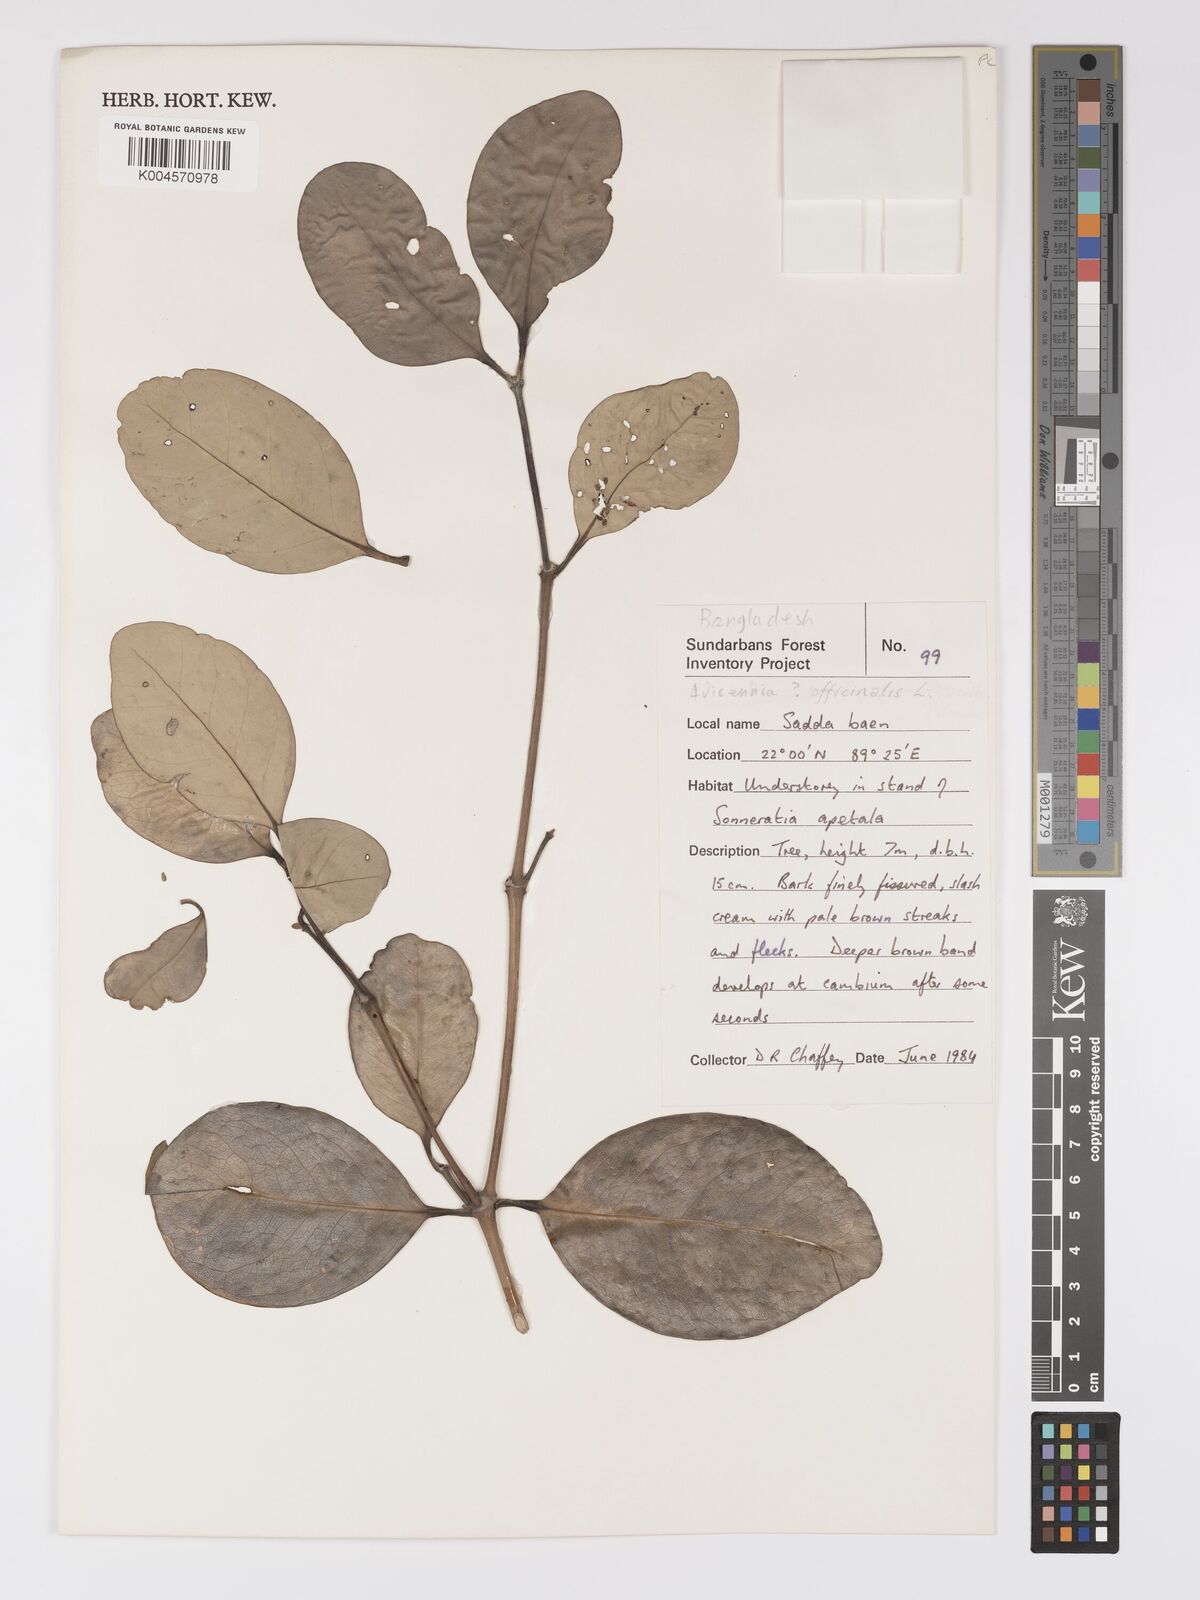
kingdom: Plantae
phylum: Tracheophyta
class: Magnoliopsida
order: Lamiales
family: Acanthaceae
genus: Avicennia
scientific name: Avicennia officinalis
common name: Baen
